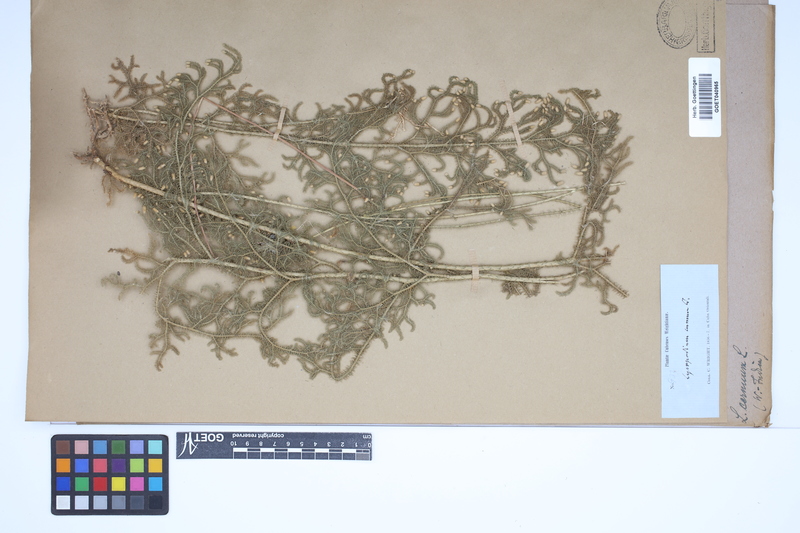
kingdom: Plantae
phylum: Tracheophyta
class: Lycopodiopsida
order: Lycopodiales
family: Lycopodiaceae
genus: Palhinhaea
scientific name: Palhinhaea cernua
